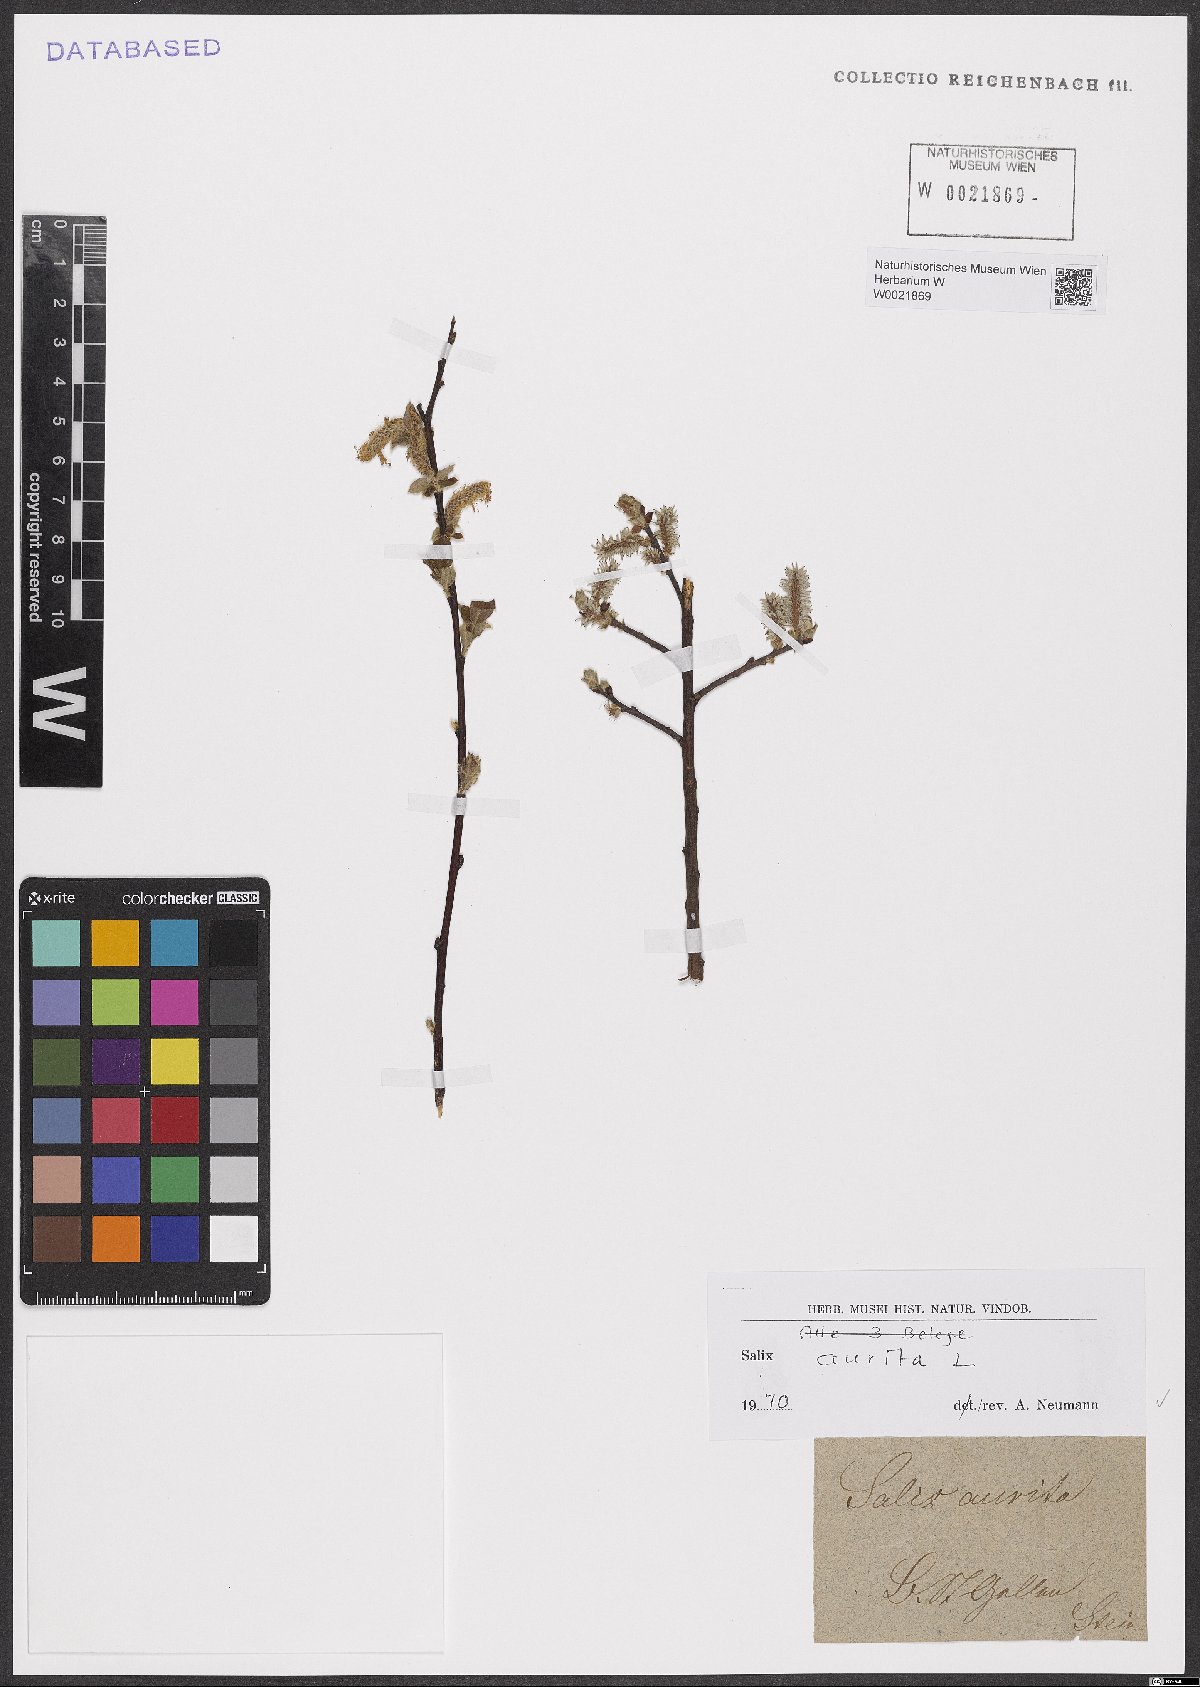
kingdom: Plantae
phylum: Tracheophyta
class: Magnoliopsida
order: Malpighiales
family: Salicaceae
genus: Salix
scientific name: Salix aurita
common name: Eared willow
